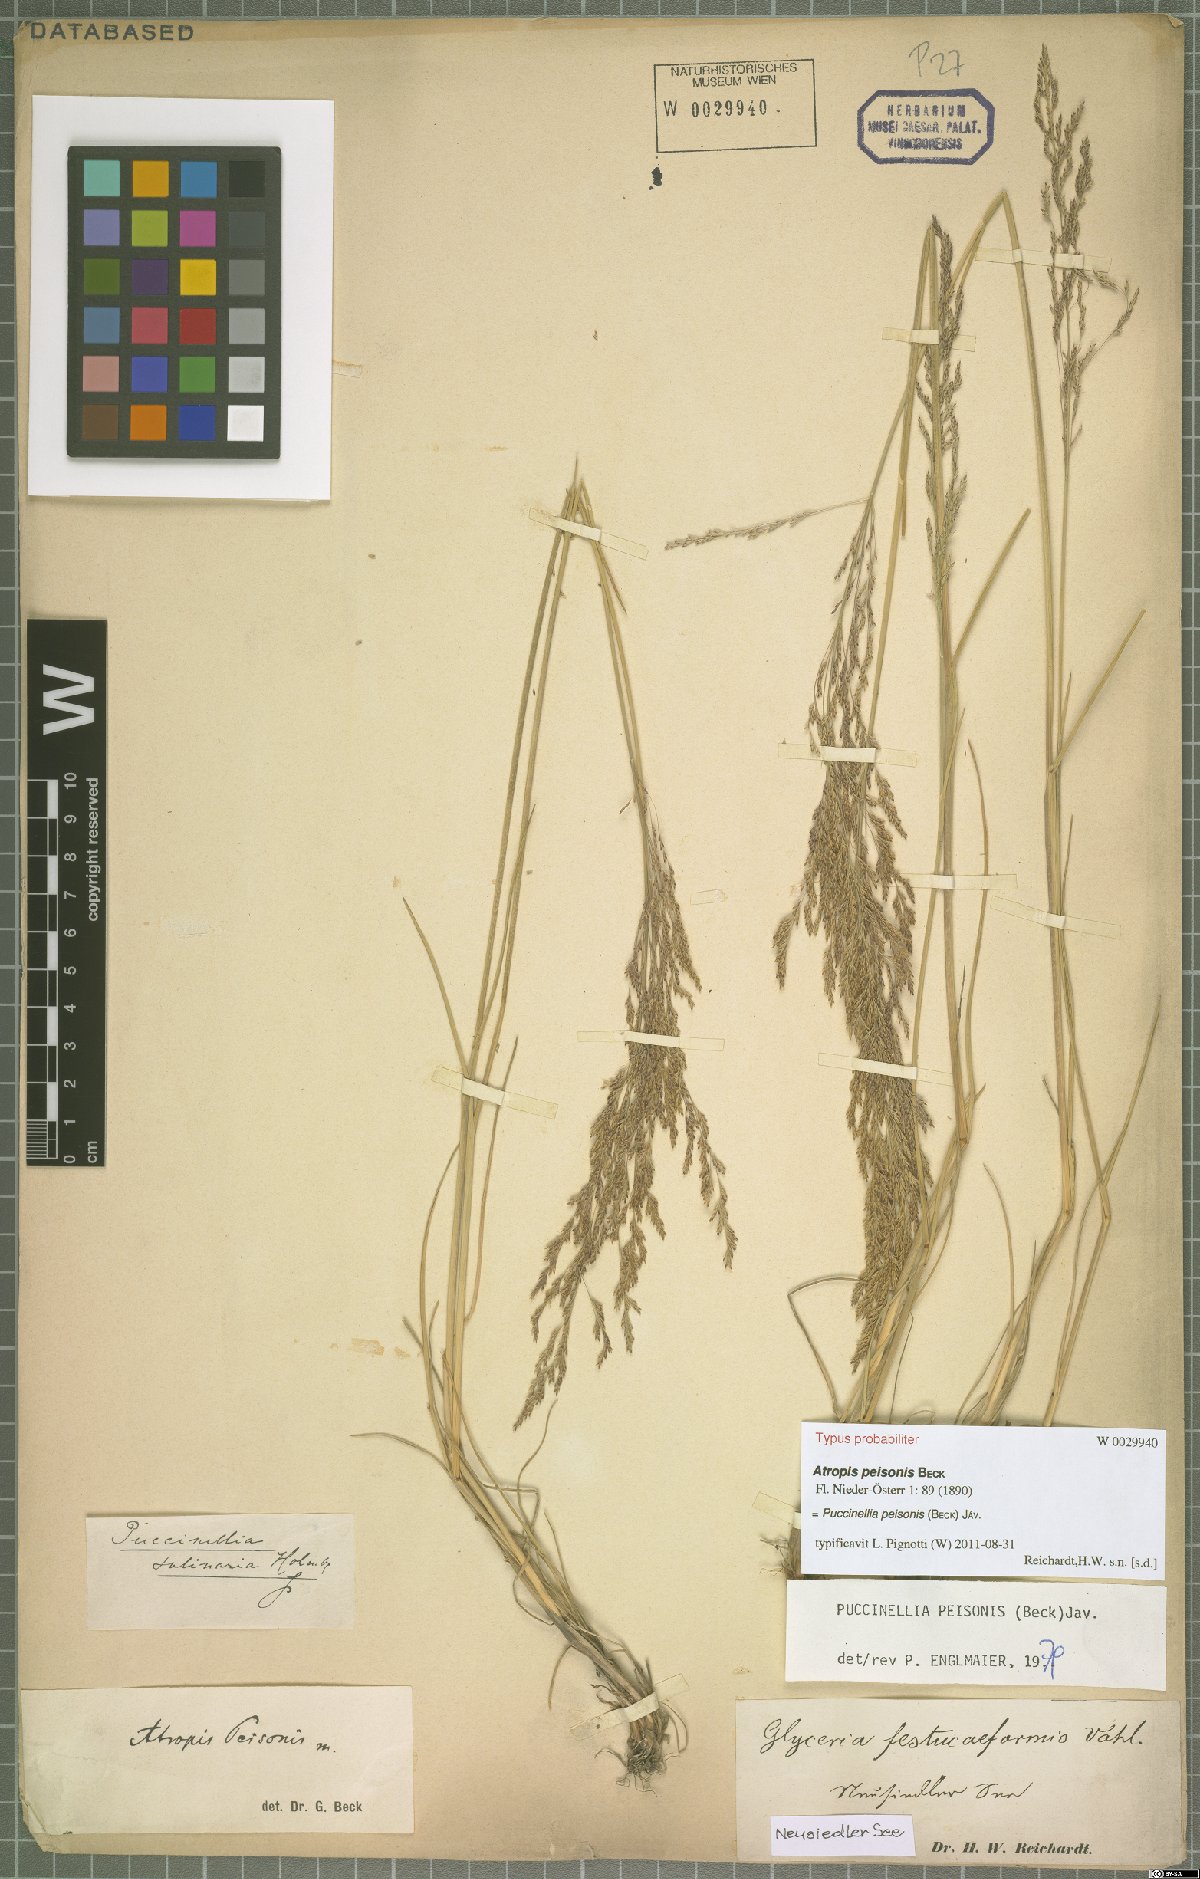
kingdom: Plantae
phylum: Tracheophyta
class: Liliopsida
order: Poales
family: Poaceae
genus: Puccinellia
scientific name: Puccinellia intermedia
